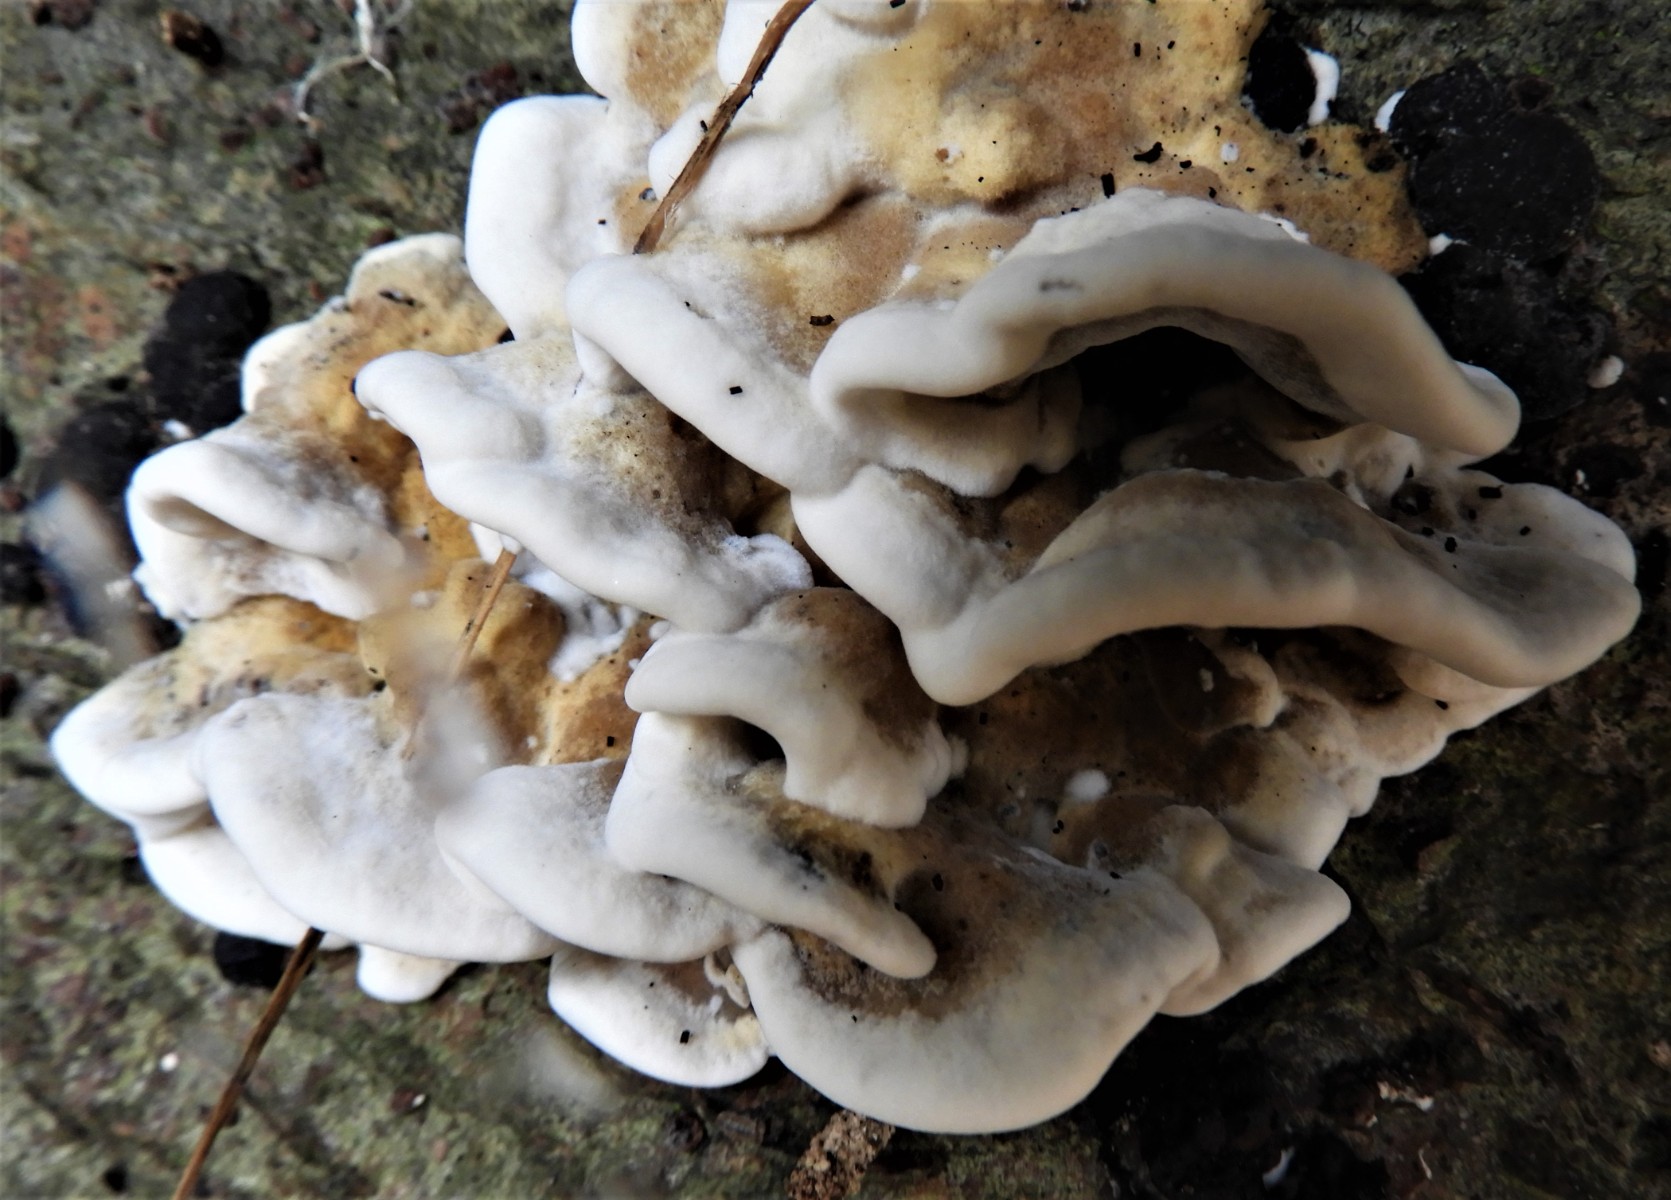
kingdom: Fungi
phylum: Basidiomycota
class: Agaricomycetes
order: Polyporales
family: Phanerochaetaceae
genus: Bjerkandera
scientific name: Bjerkandera adusta
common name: sveden sodporesvamp
